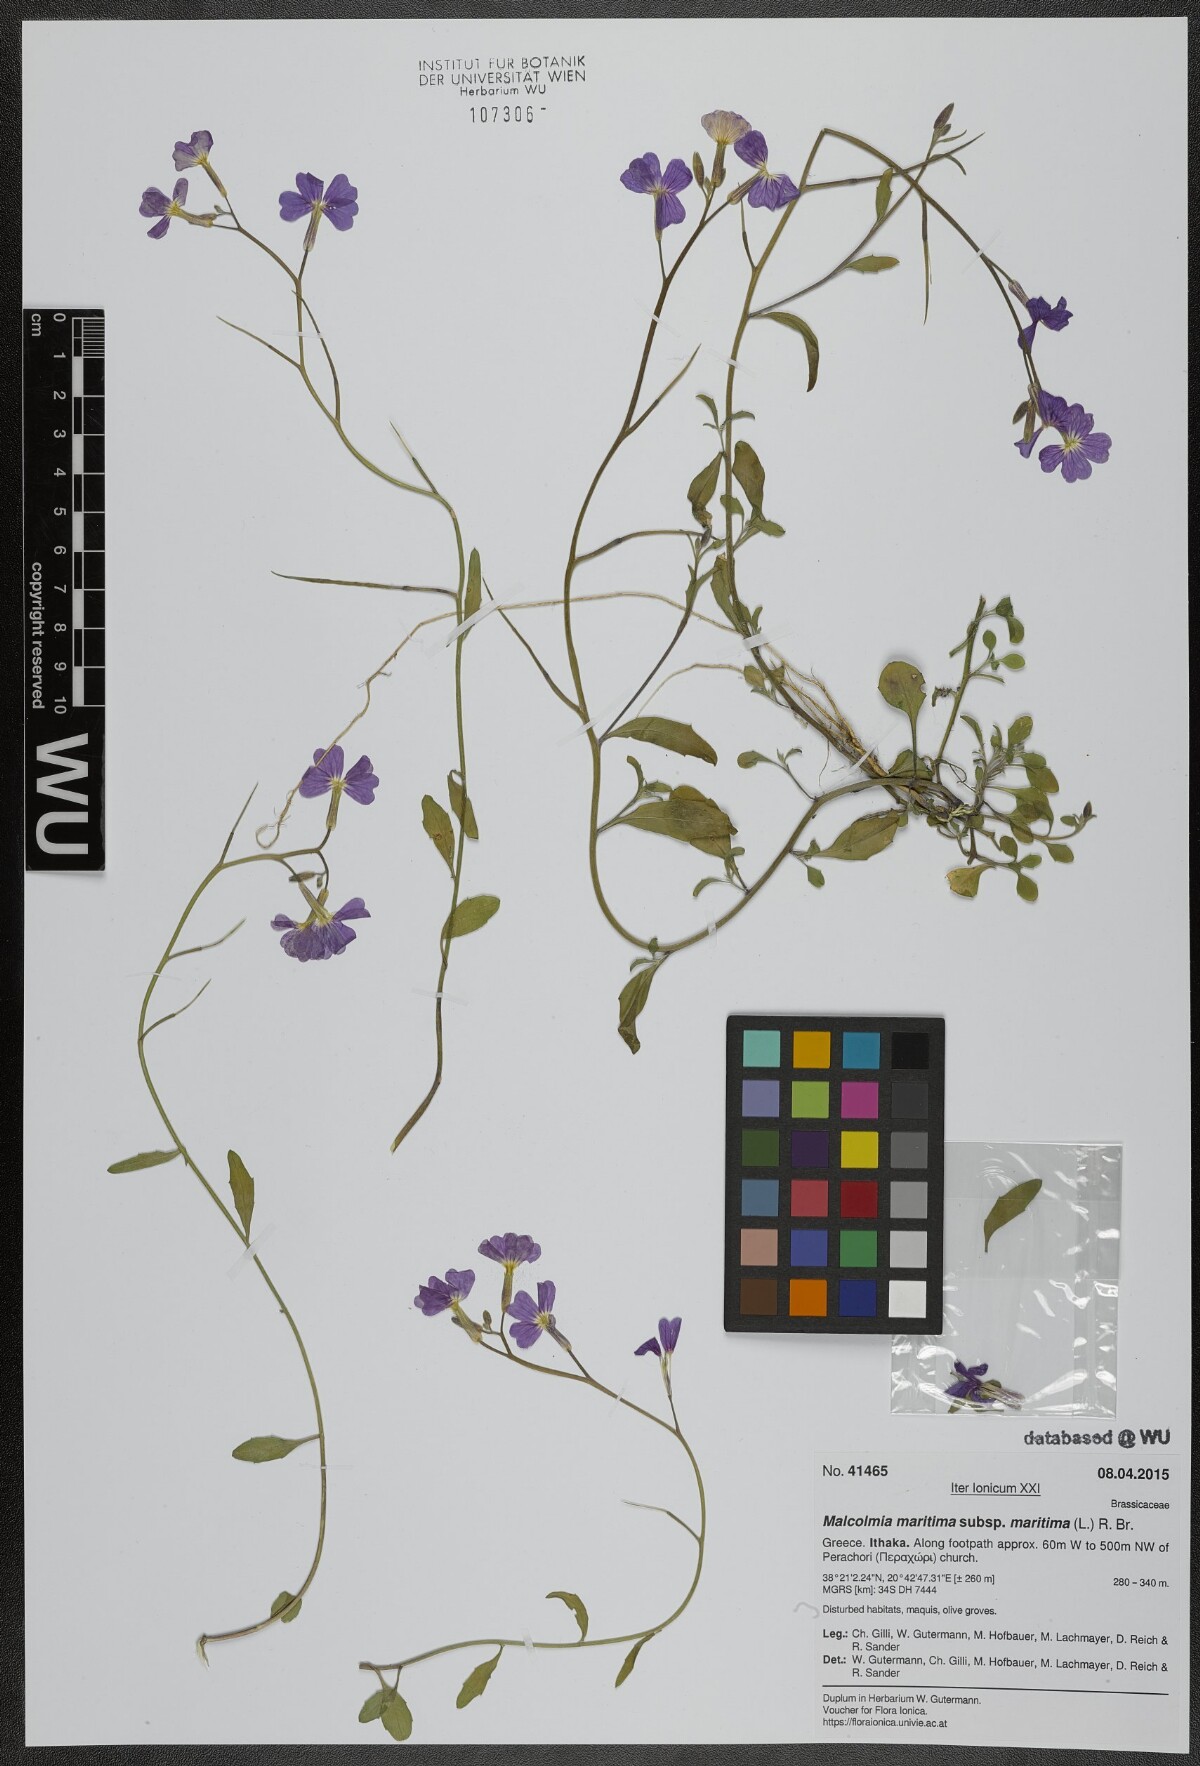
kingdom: Plantae
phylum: Tracheophyta
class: Magnoliopsida
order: Brassicales
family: Brassicaceae
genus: Malcolmia
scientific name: Malcolmia maritima
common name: Virginia stock
